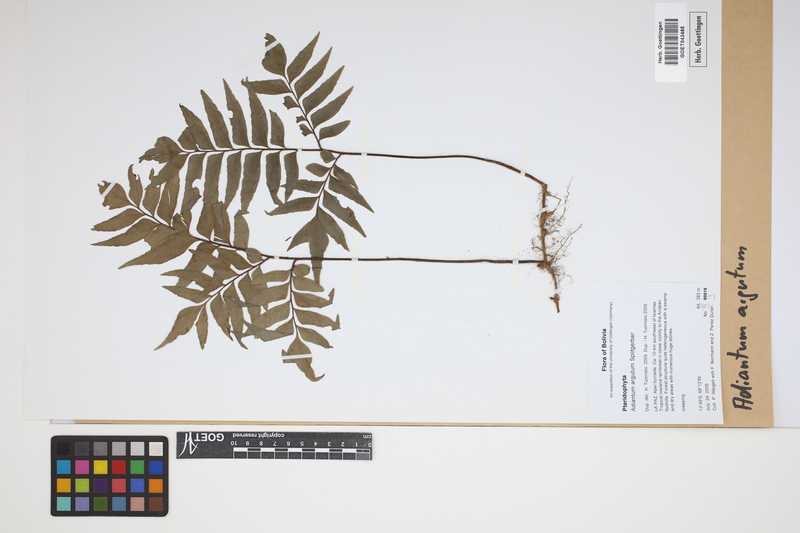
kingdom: Plantae
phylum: Tracheophyta
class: Polypodiopsida
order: Polypodiales
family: Pteridaceae
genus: Adiantum
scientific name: Adiantum argutum
